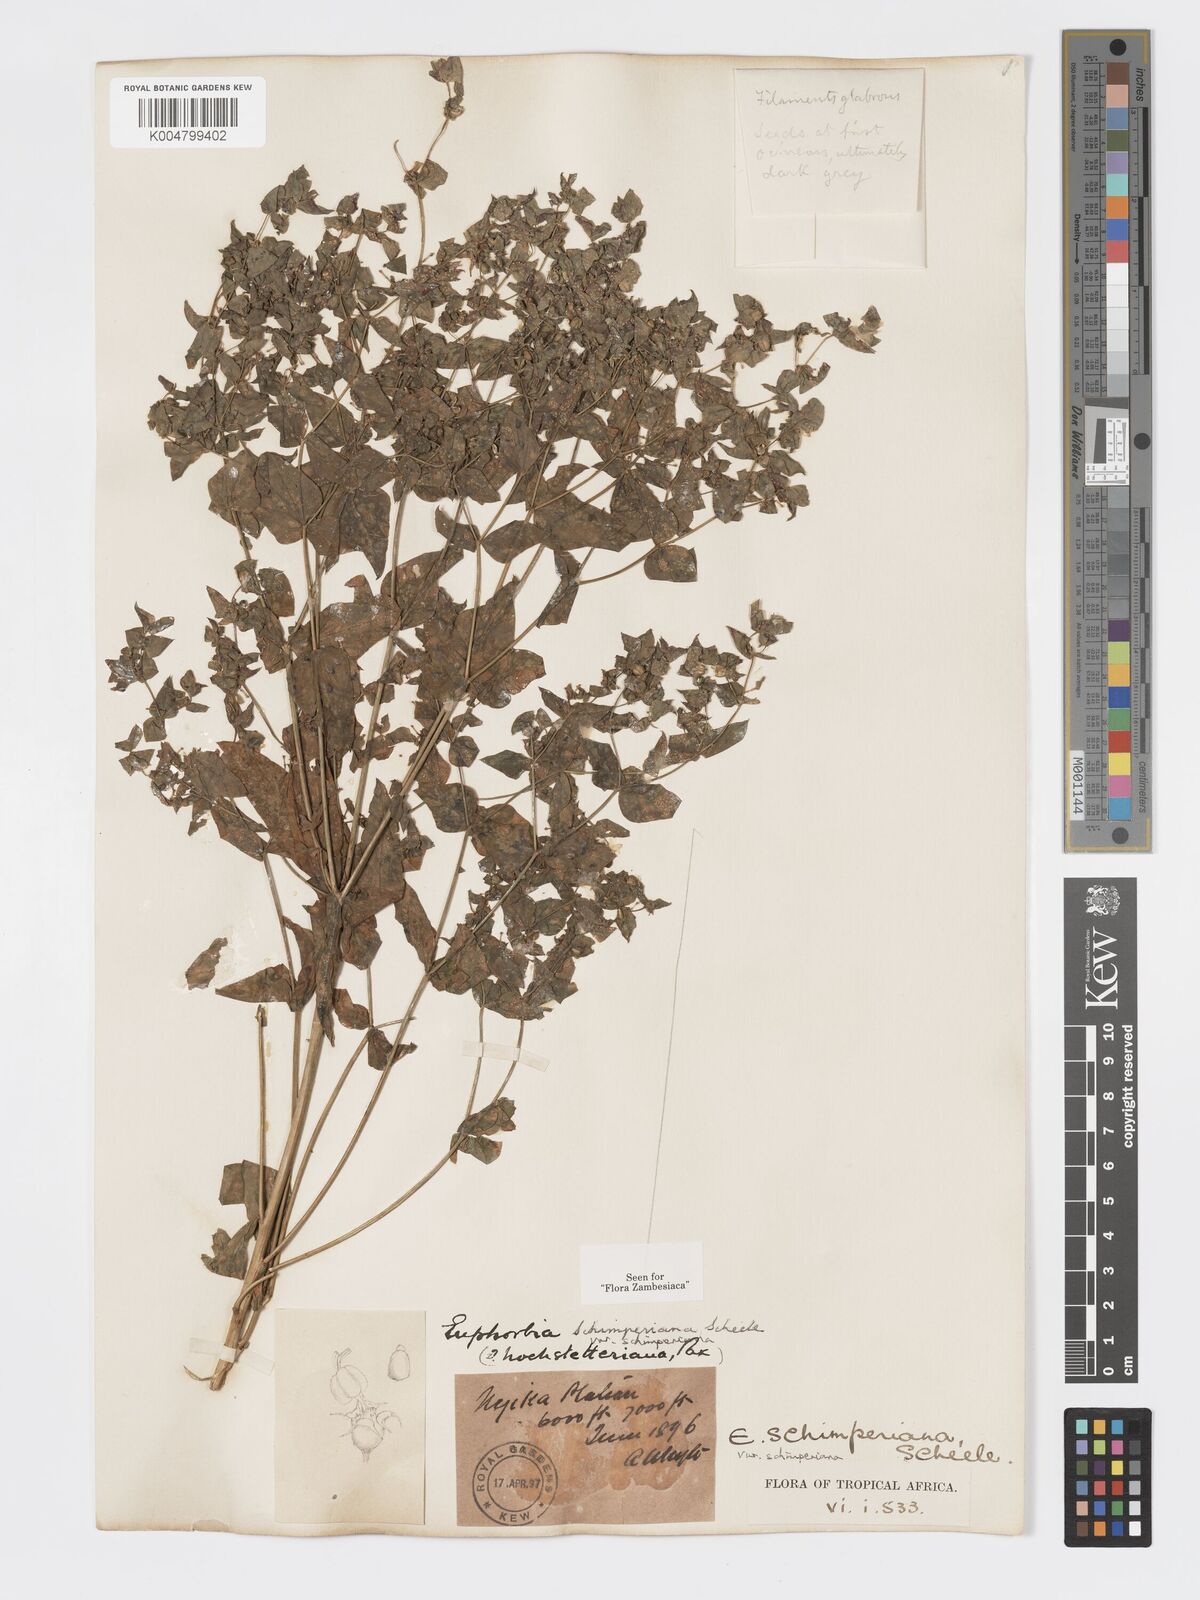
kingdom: Plantae
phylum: Tracheophyta
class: Magnoliopsida
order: Malpighiales
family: Euphorbiaceae
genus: Euphorbia
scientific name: Euphorbia schimperiana
